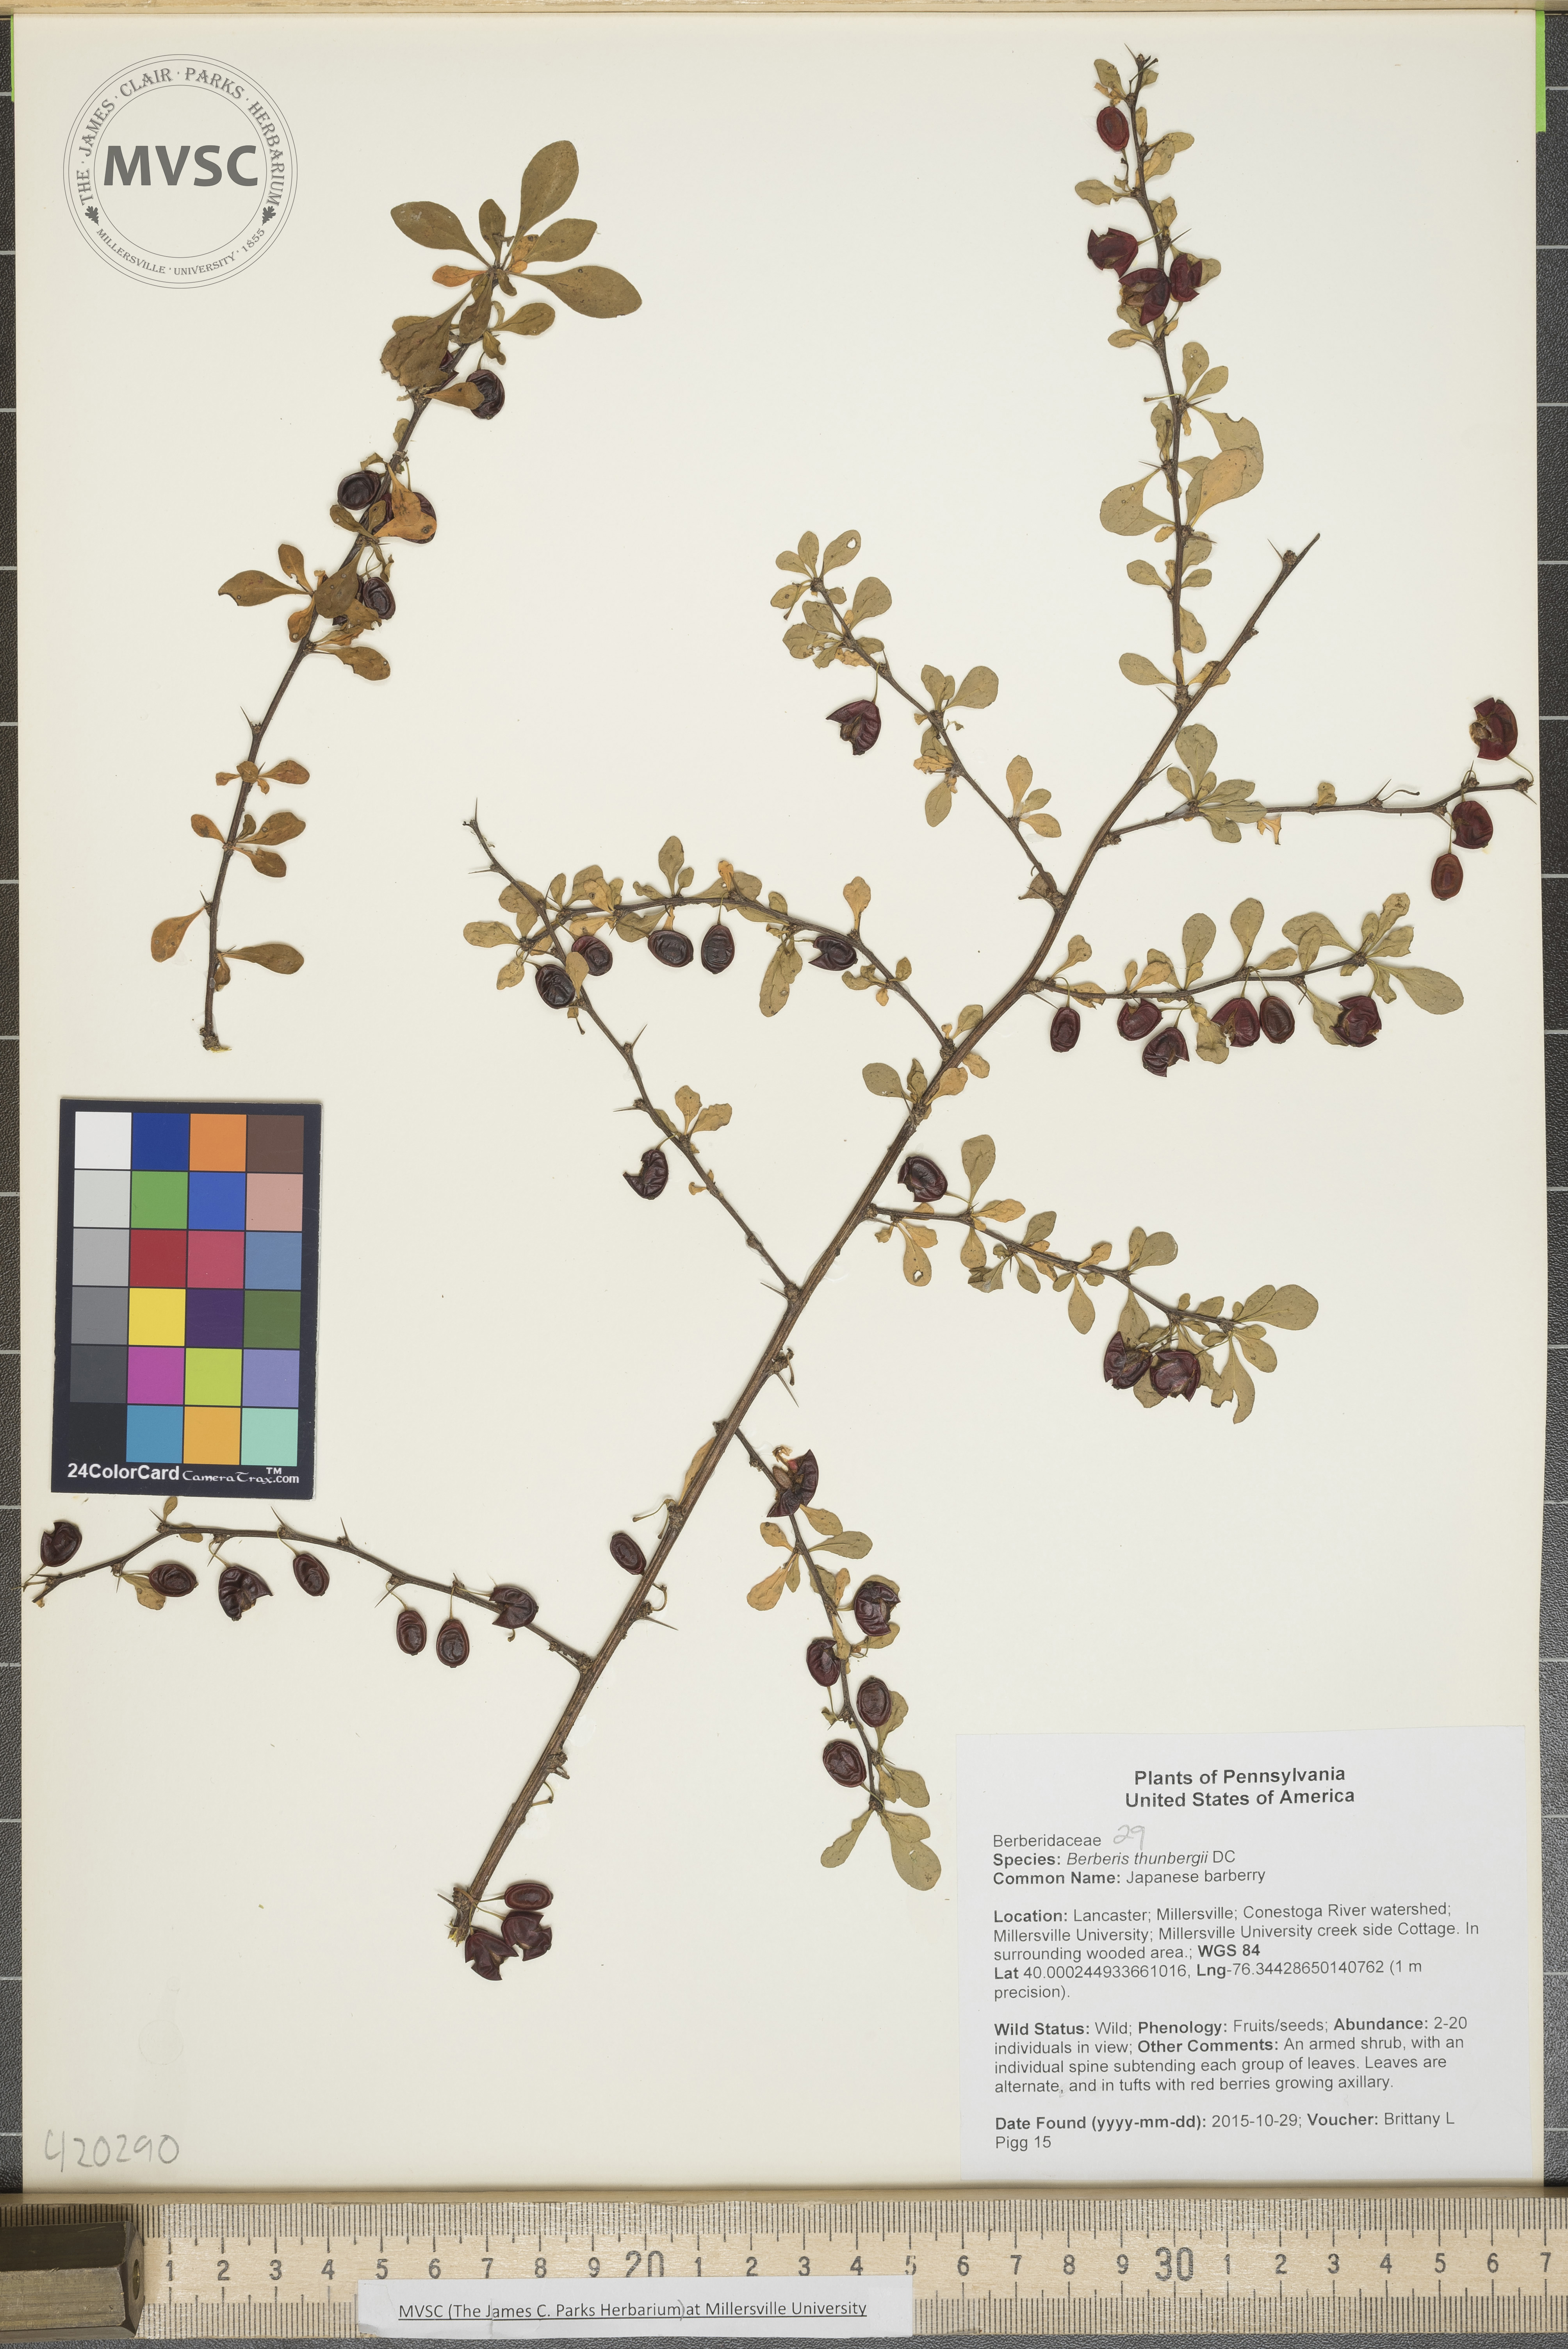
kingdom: Plantae
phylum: Tracheophyta
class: Magnoliopsida
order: Ranunculales
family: Berberidaceae
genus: Berberis
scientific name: Berberis thunbergii
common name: Japanese barberry
